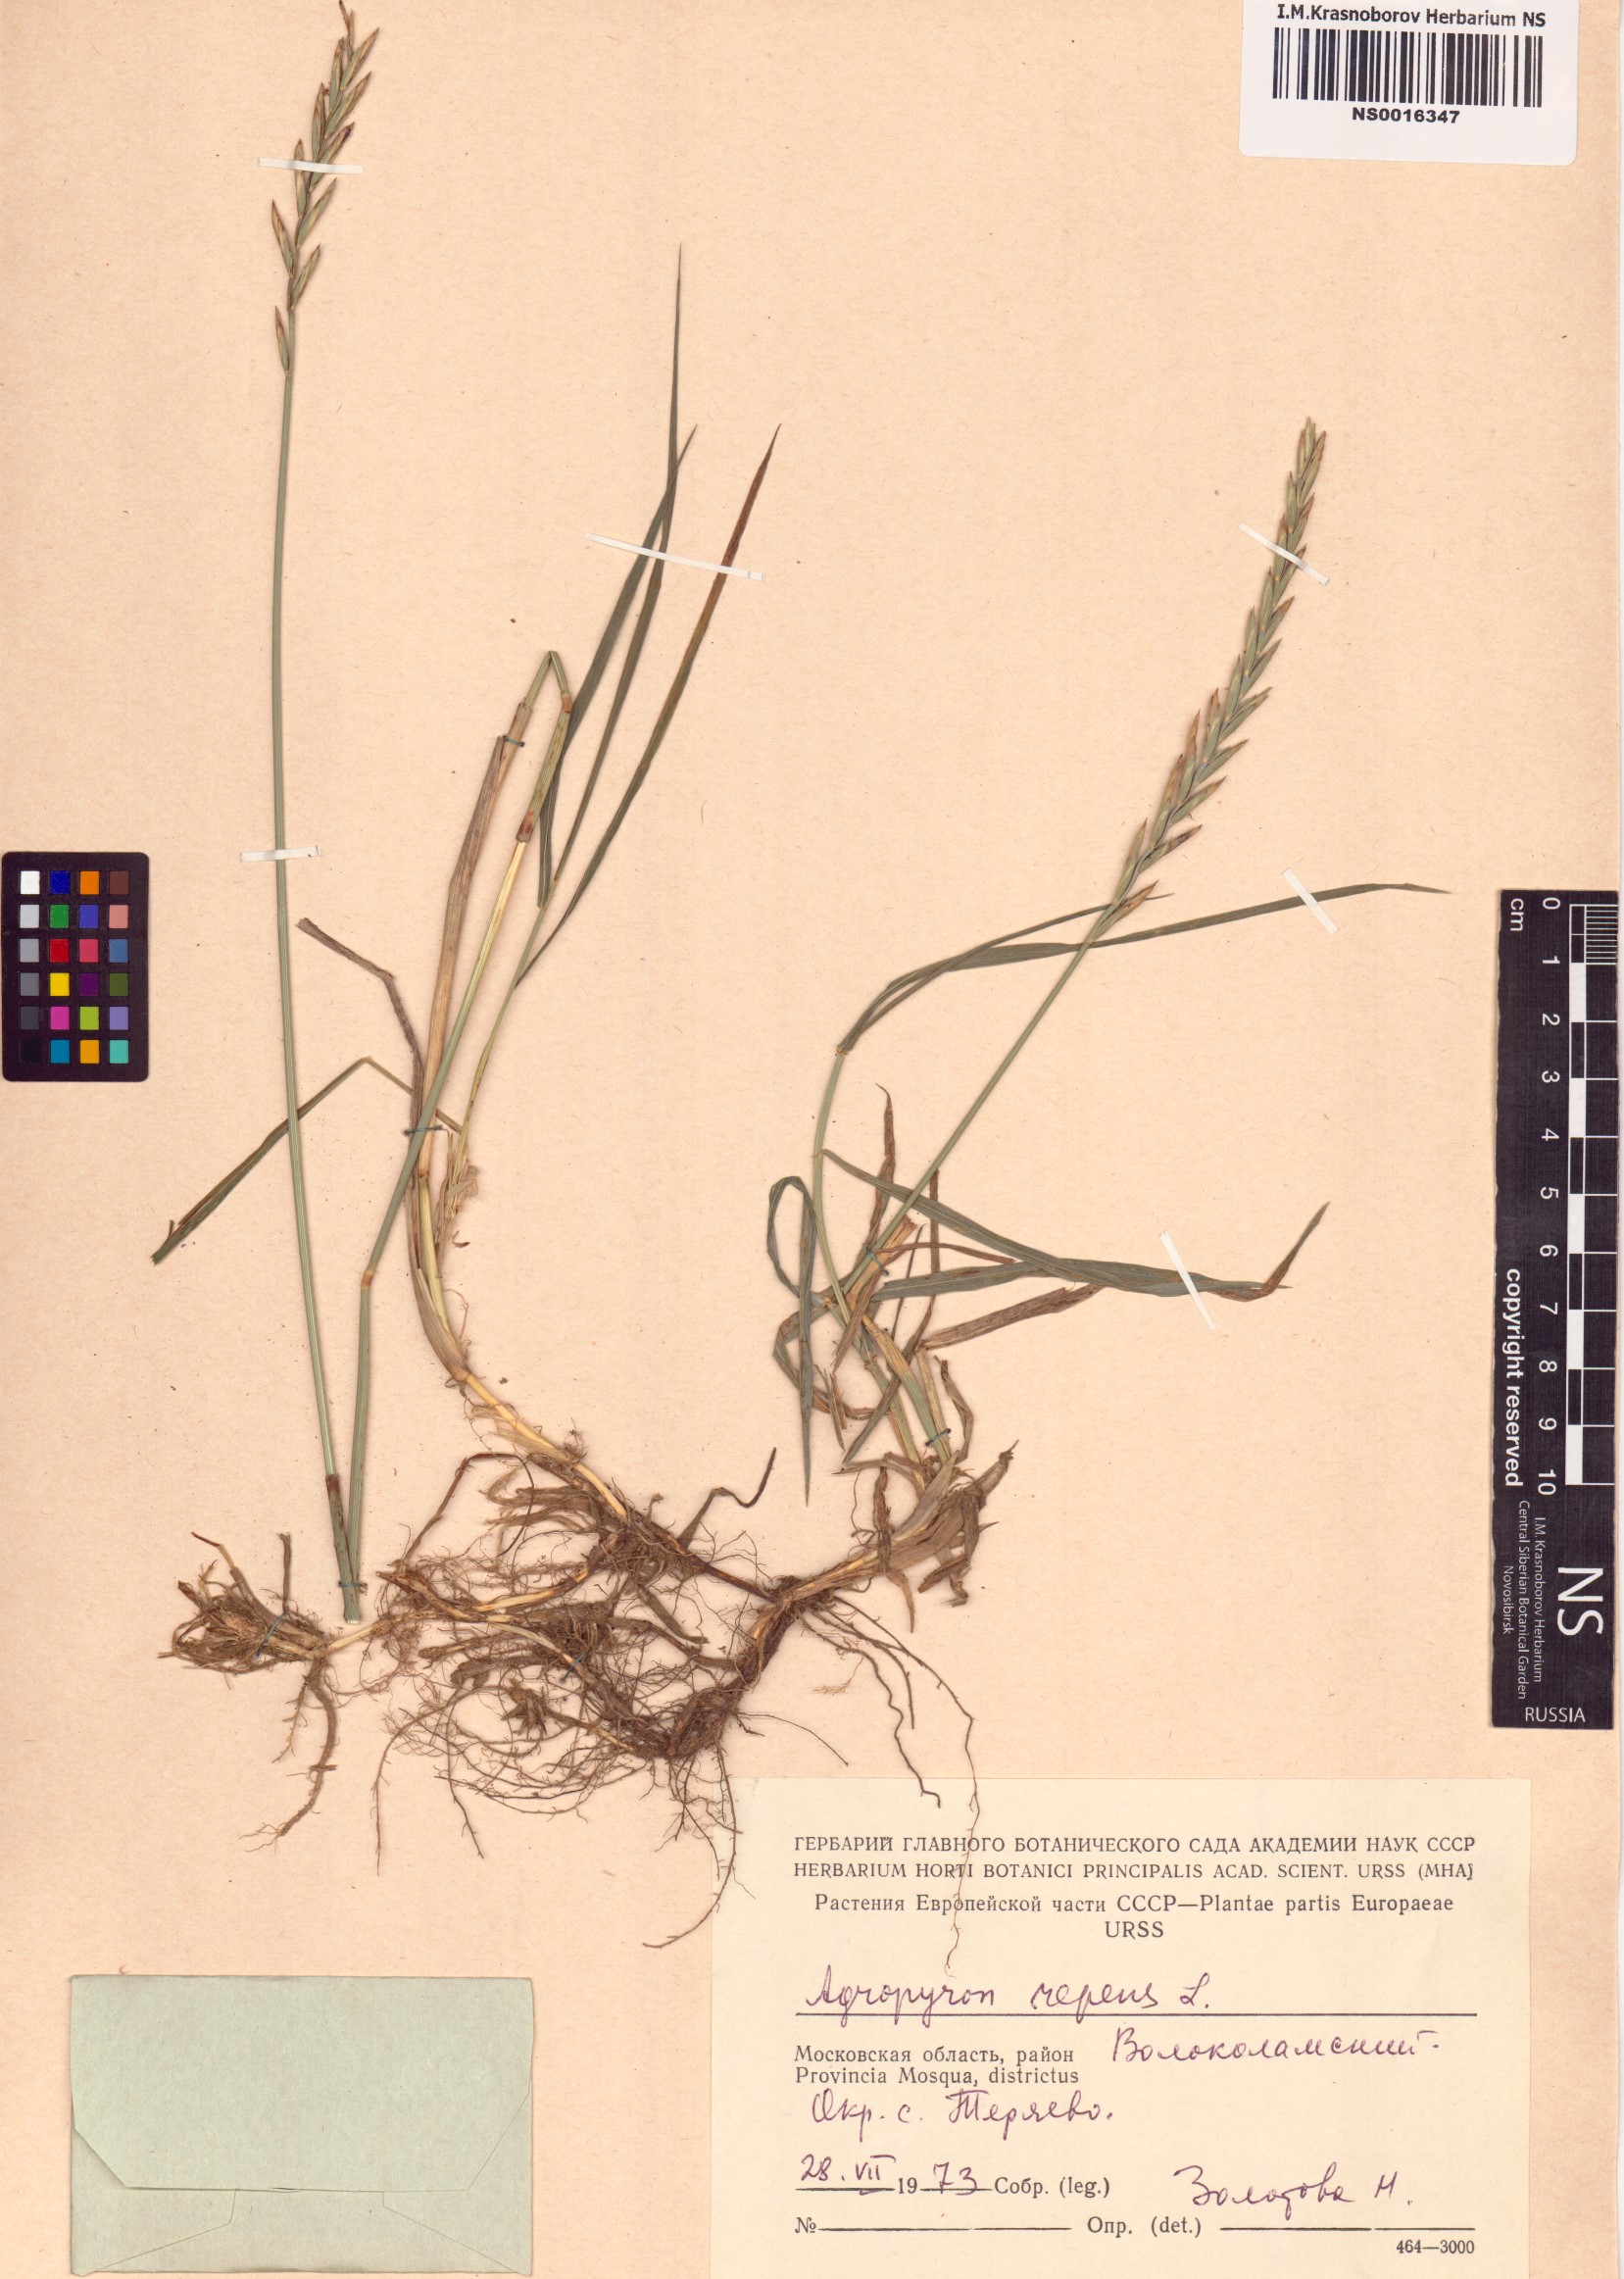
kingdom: Plantae
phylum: Tracheophyta
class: Liliopsida
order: Poales
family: Poaceae
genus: Elymus
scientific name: Elymus repens
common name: Quackgrass
